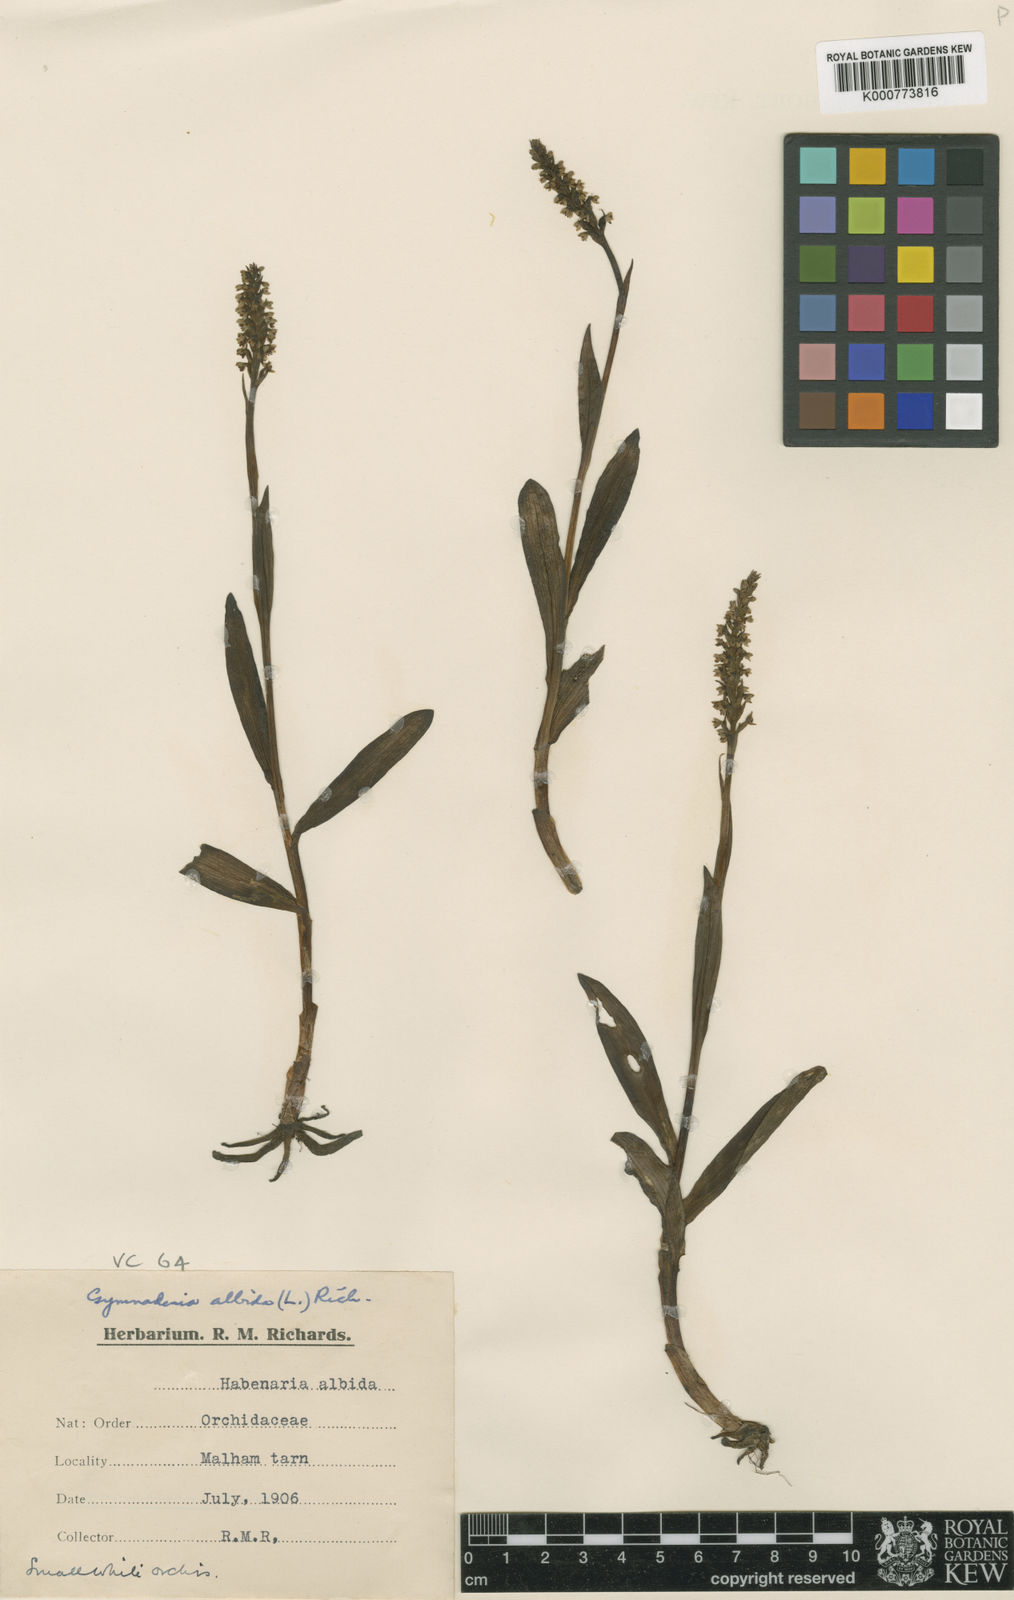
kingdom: Plantae
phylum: Tracheophyta
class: Liliopsida
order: Asparagales
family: Orchidaceae
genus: Pseudorchis
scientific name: Pseudorchis
